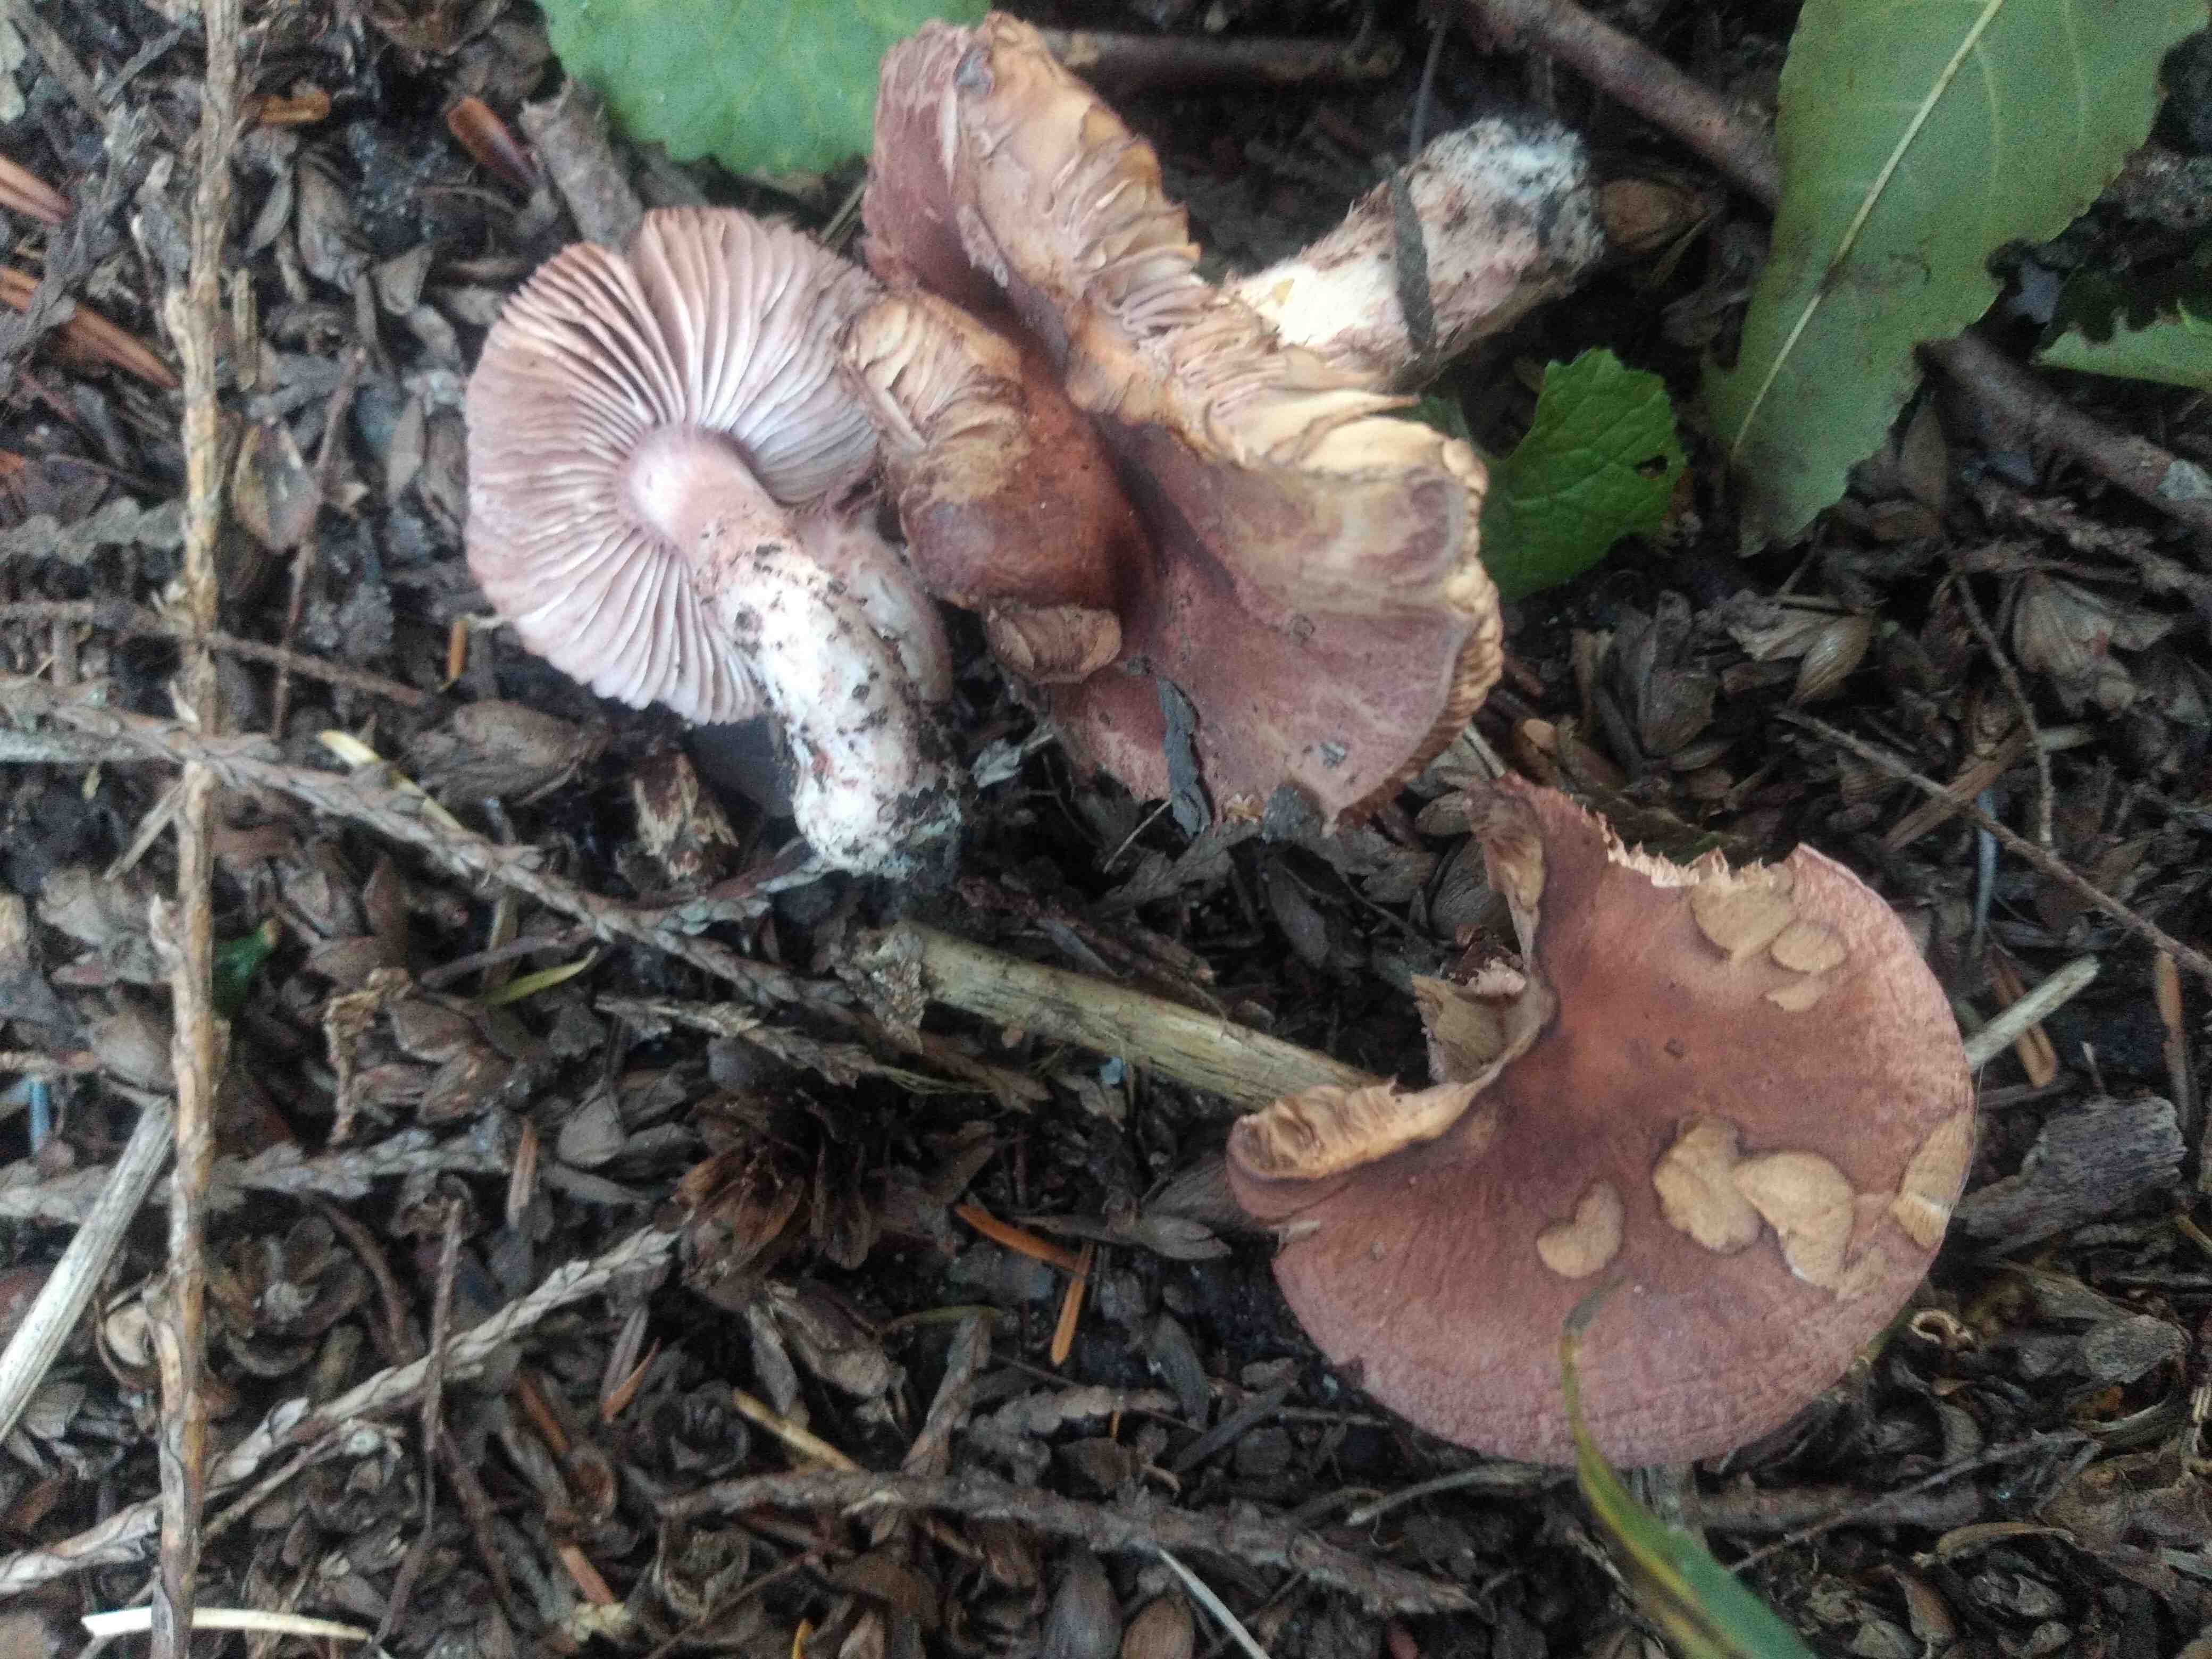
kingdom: Fungi
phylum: Basidiomycota
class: Agaricomycetes
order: Agaricales
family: Amanitaceae
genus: Limacella
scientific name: Limacella delicata
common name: rosabrun snekkehat
